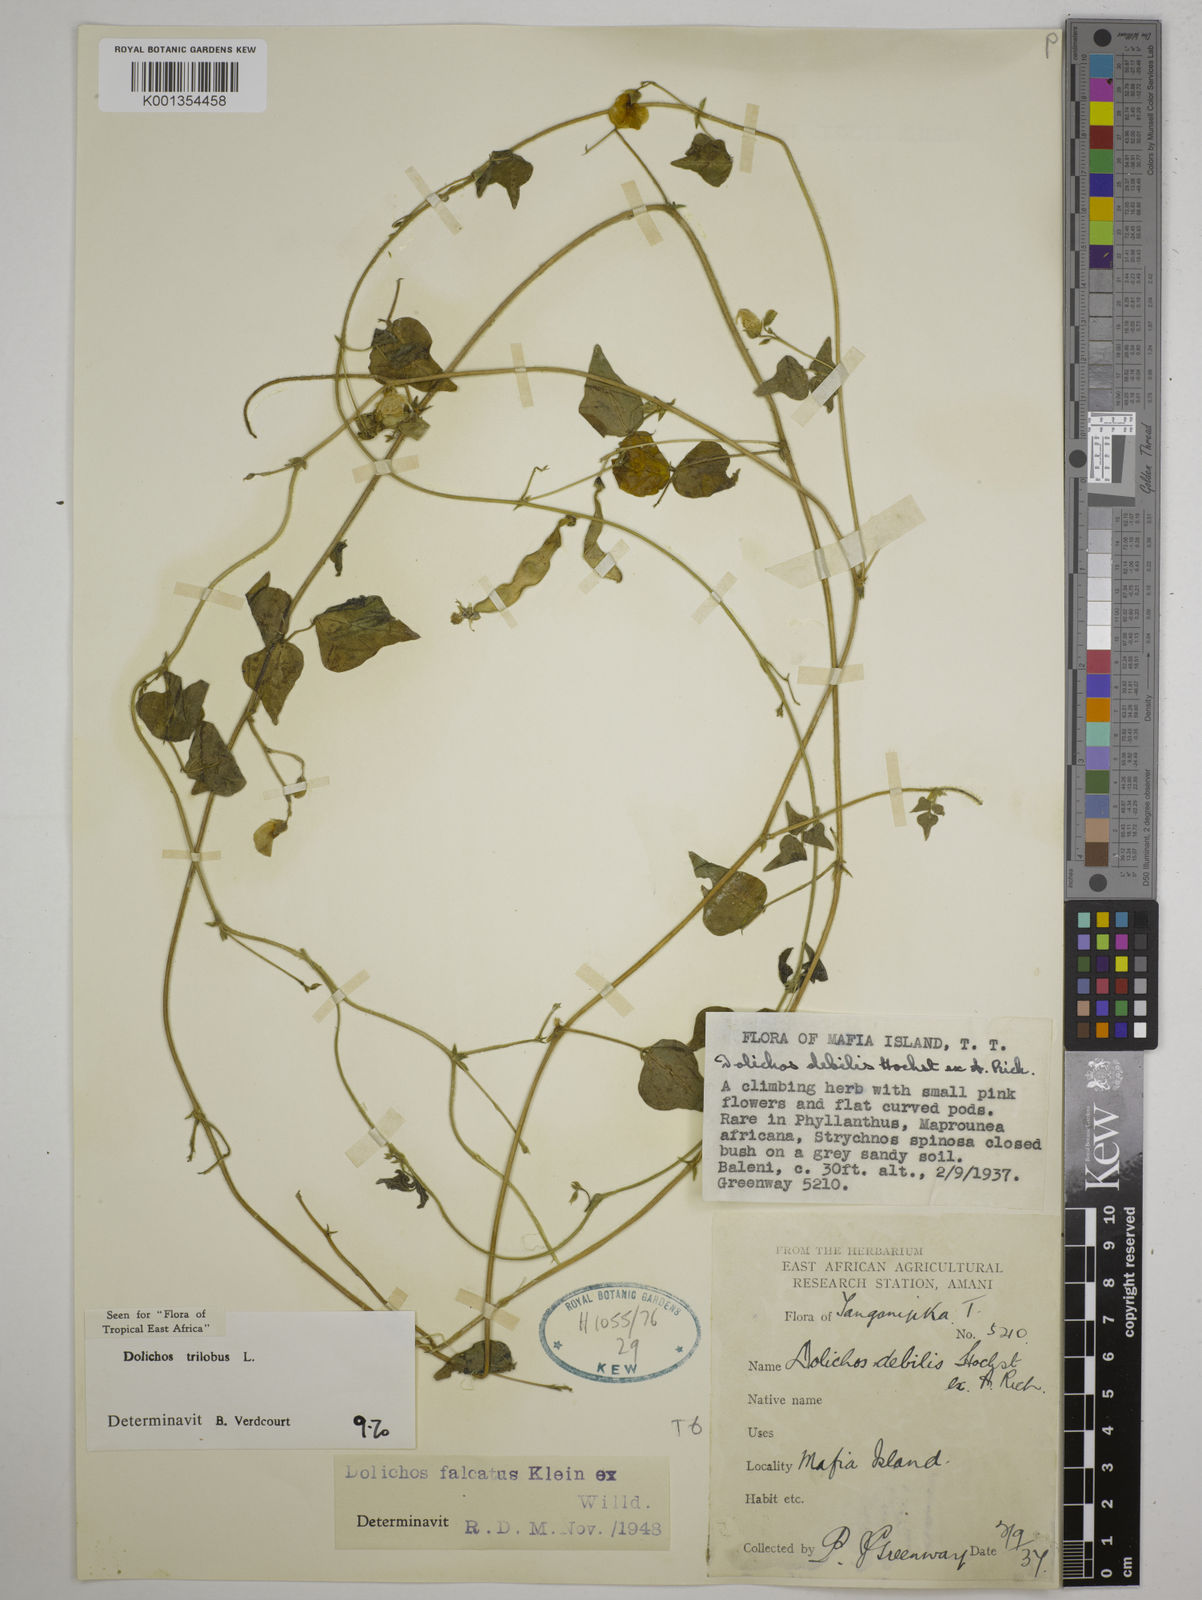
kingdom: Plantae
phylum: Tracheophyta
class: Magnoliopsida
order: Fabales
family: Fabaceae
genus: Dolichos
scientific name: Dolichos
